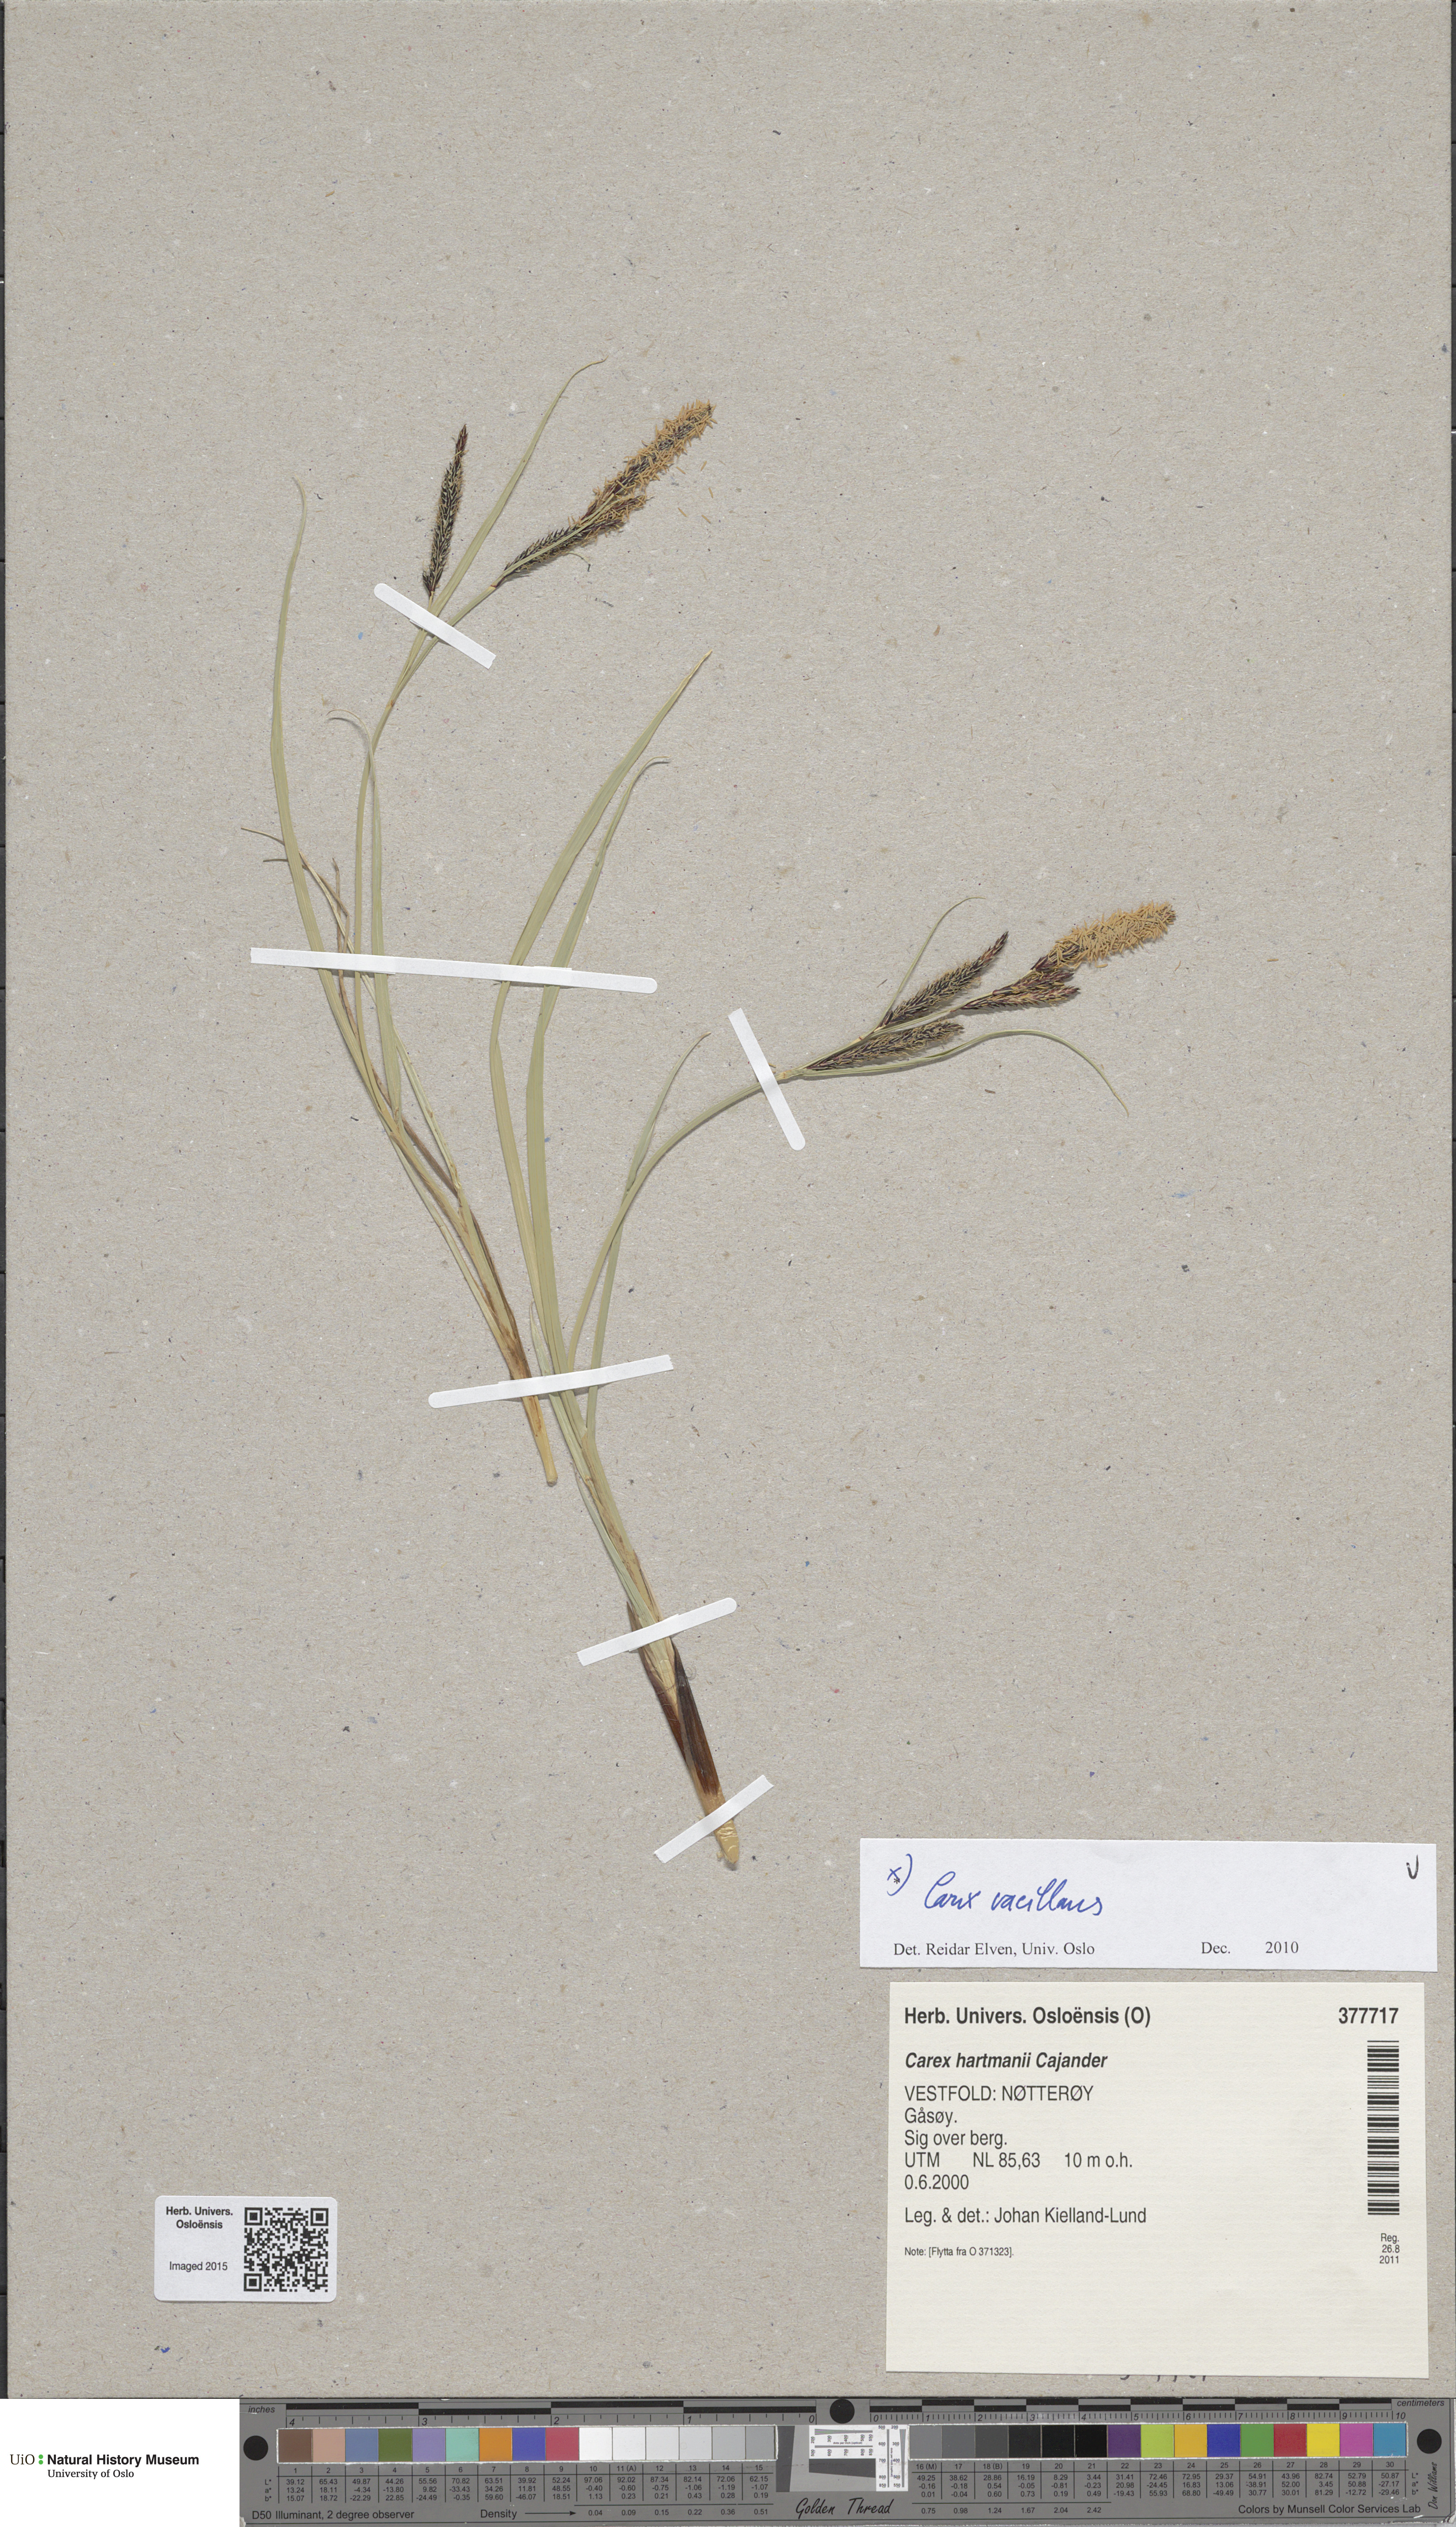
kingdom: Plantae
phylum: Tracheophyta
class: Liliopsida
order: Poales
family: Cyperaceae
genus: Carex
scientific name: Carex vacillans
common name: Sedge
